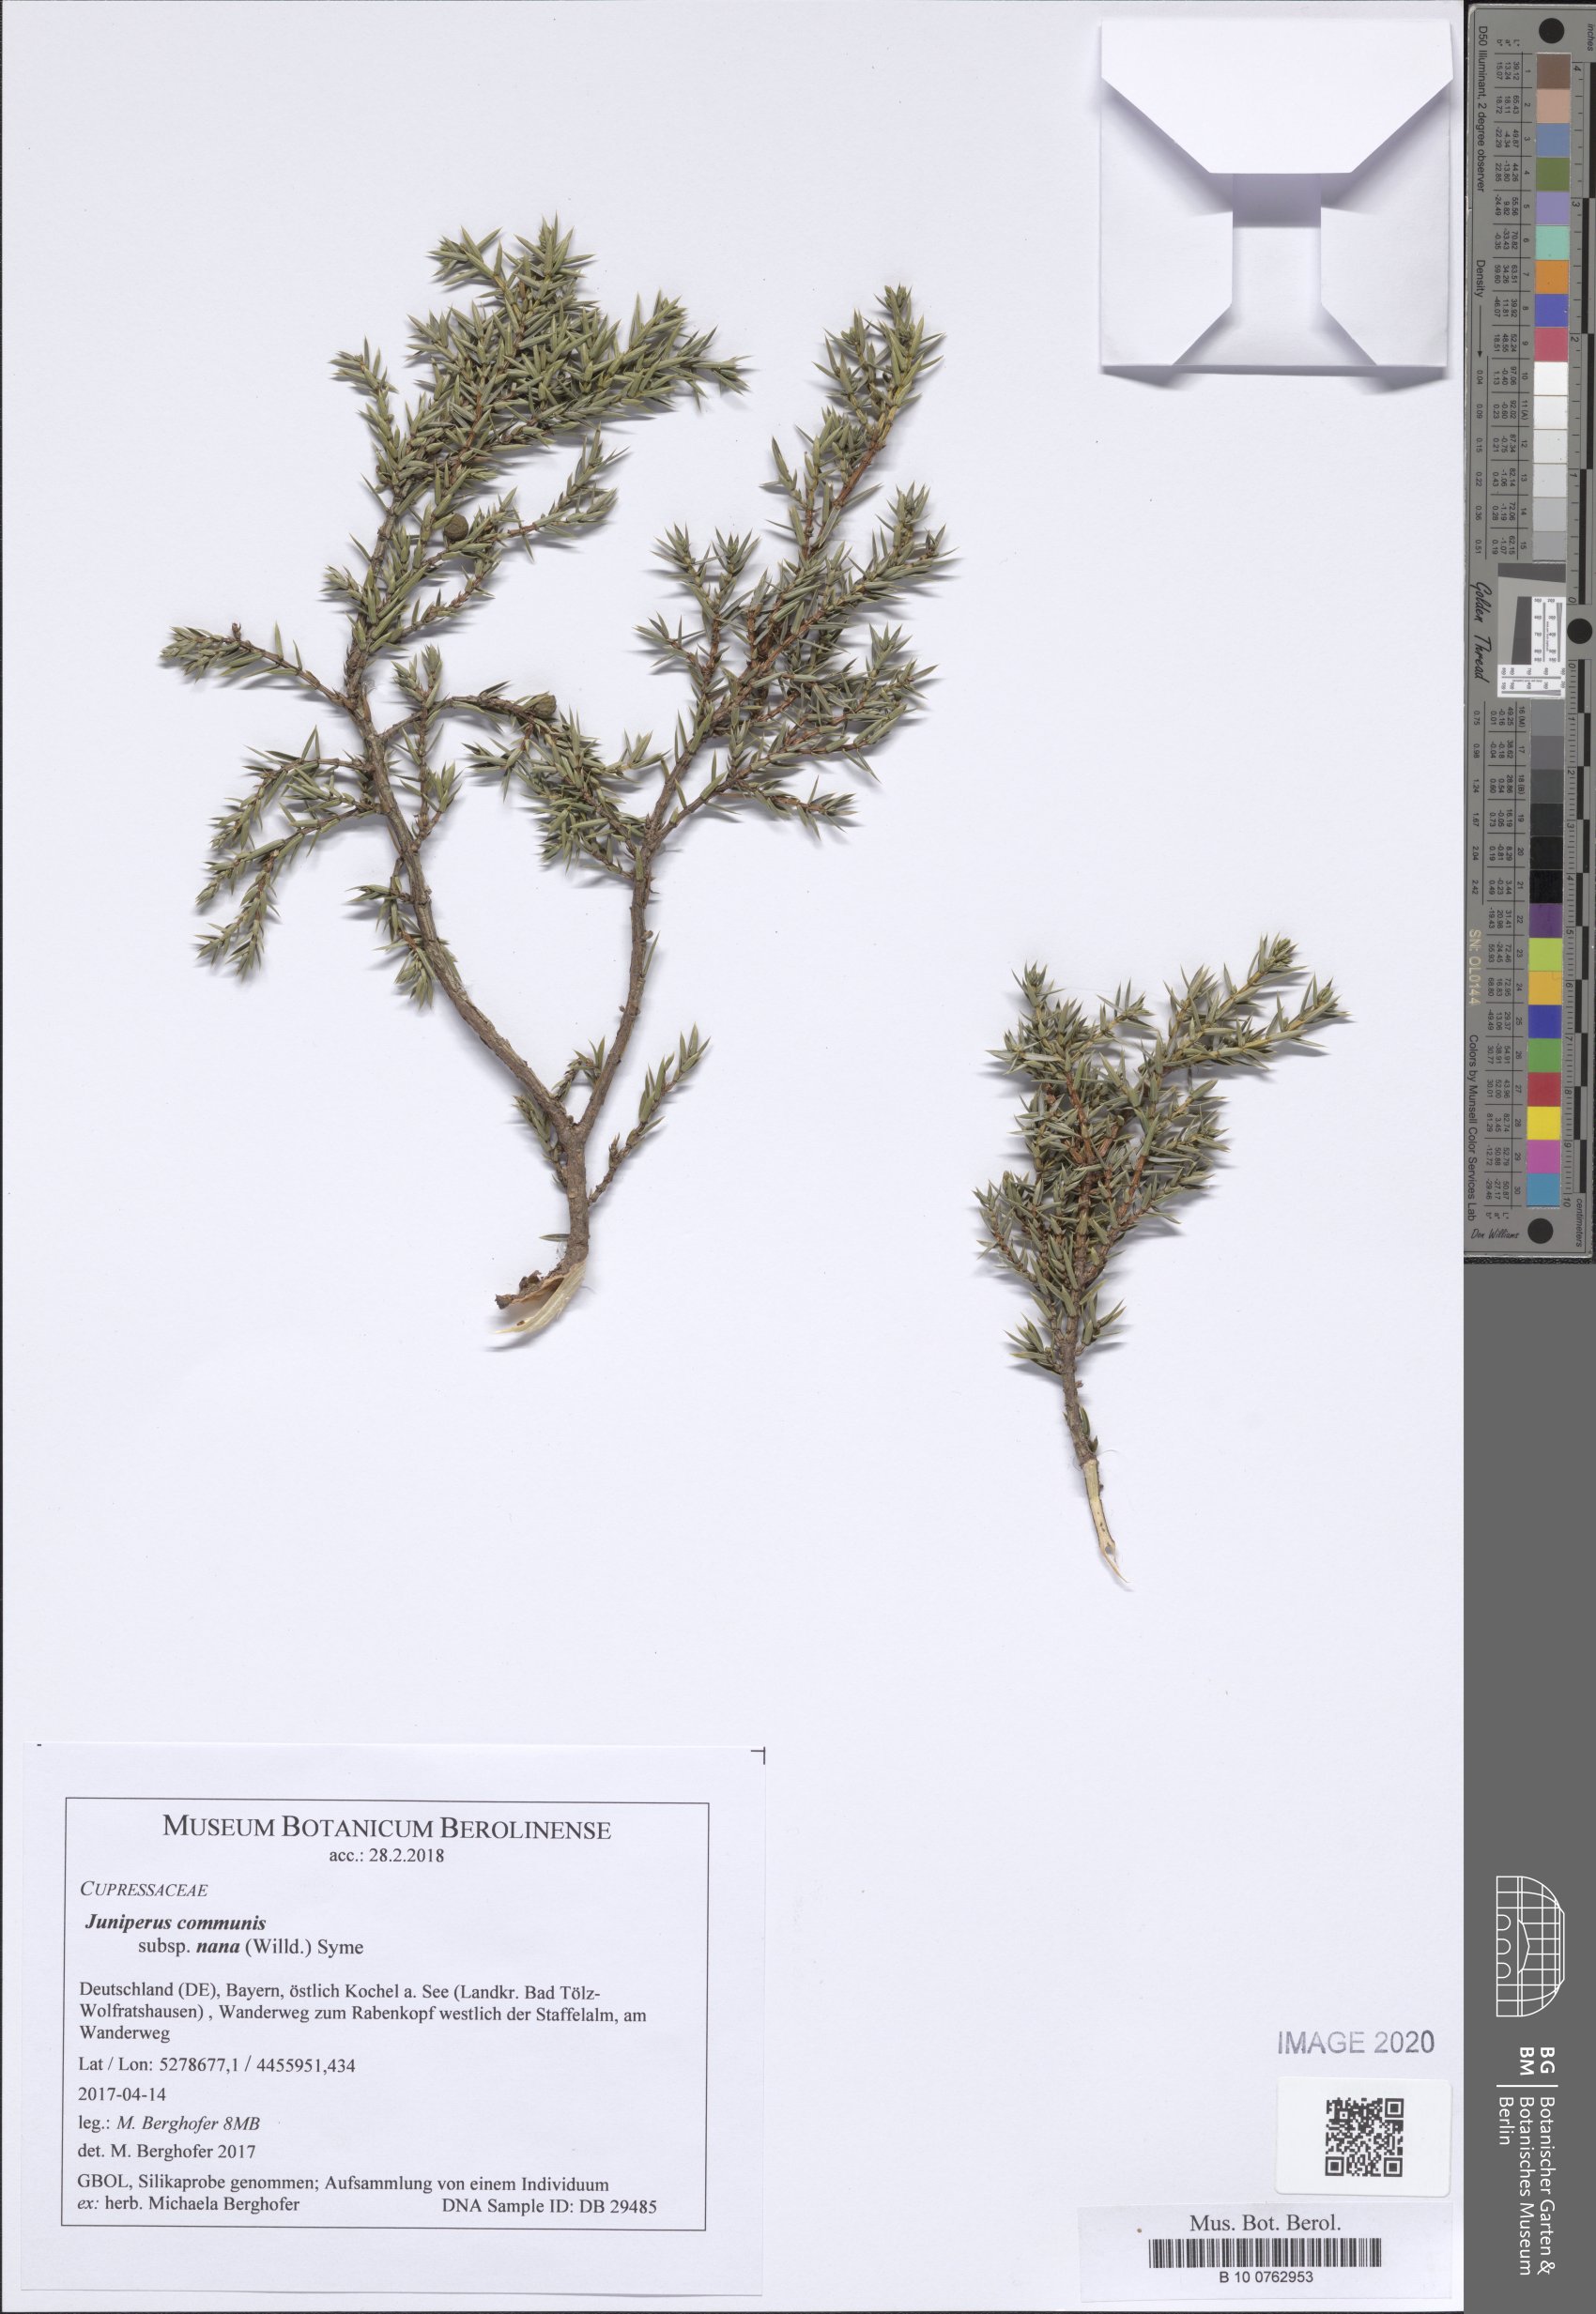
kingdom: Plantae
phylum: Tracheophyta
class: Pinopsida
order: Pinales
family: Cupressaceae
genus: Juniperus
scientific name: Juniperus communis
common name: Common juniper
